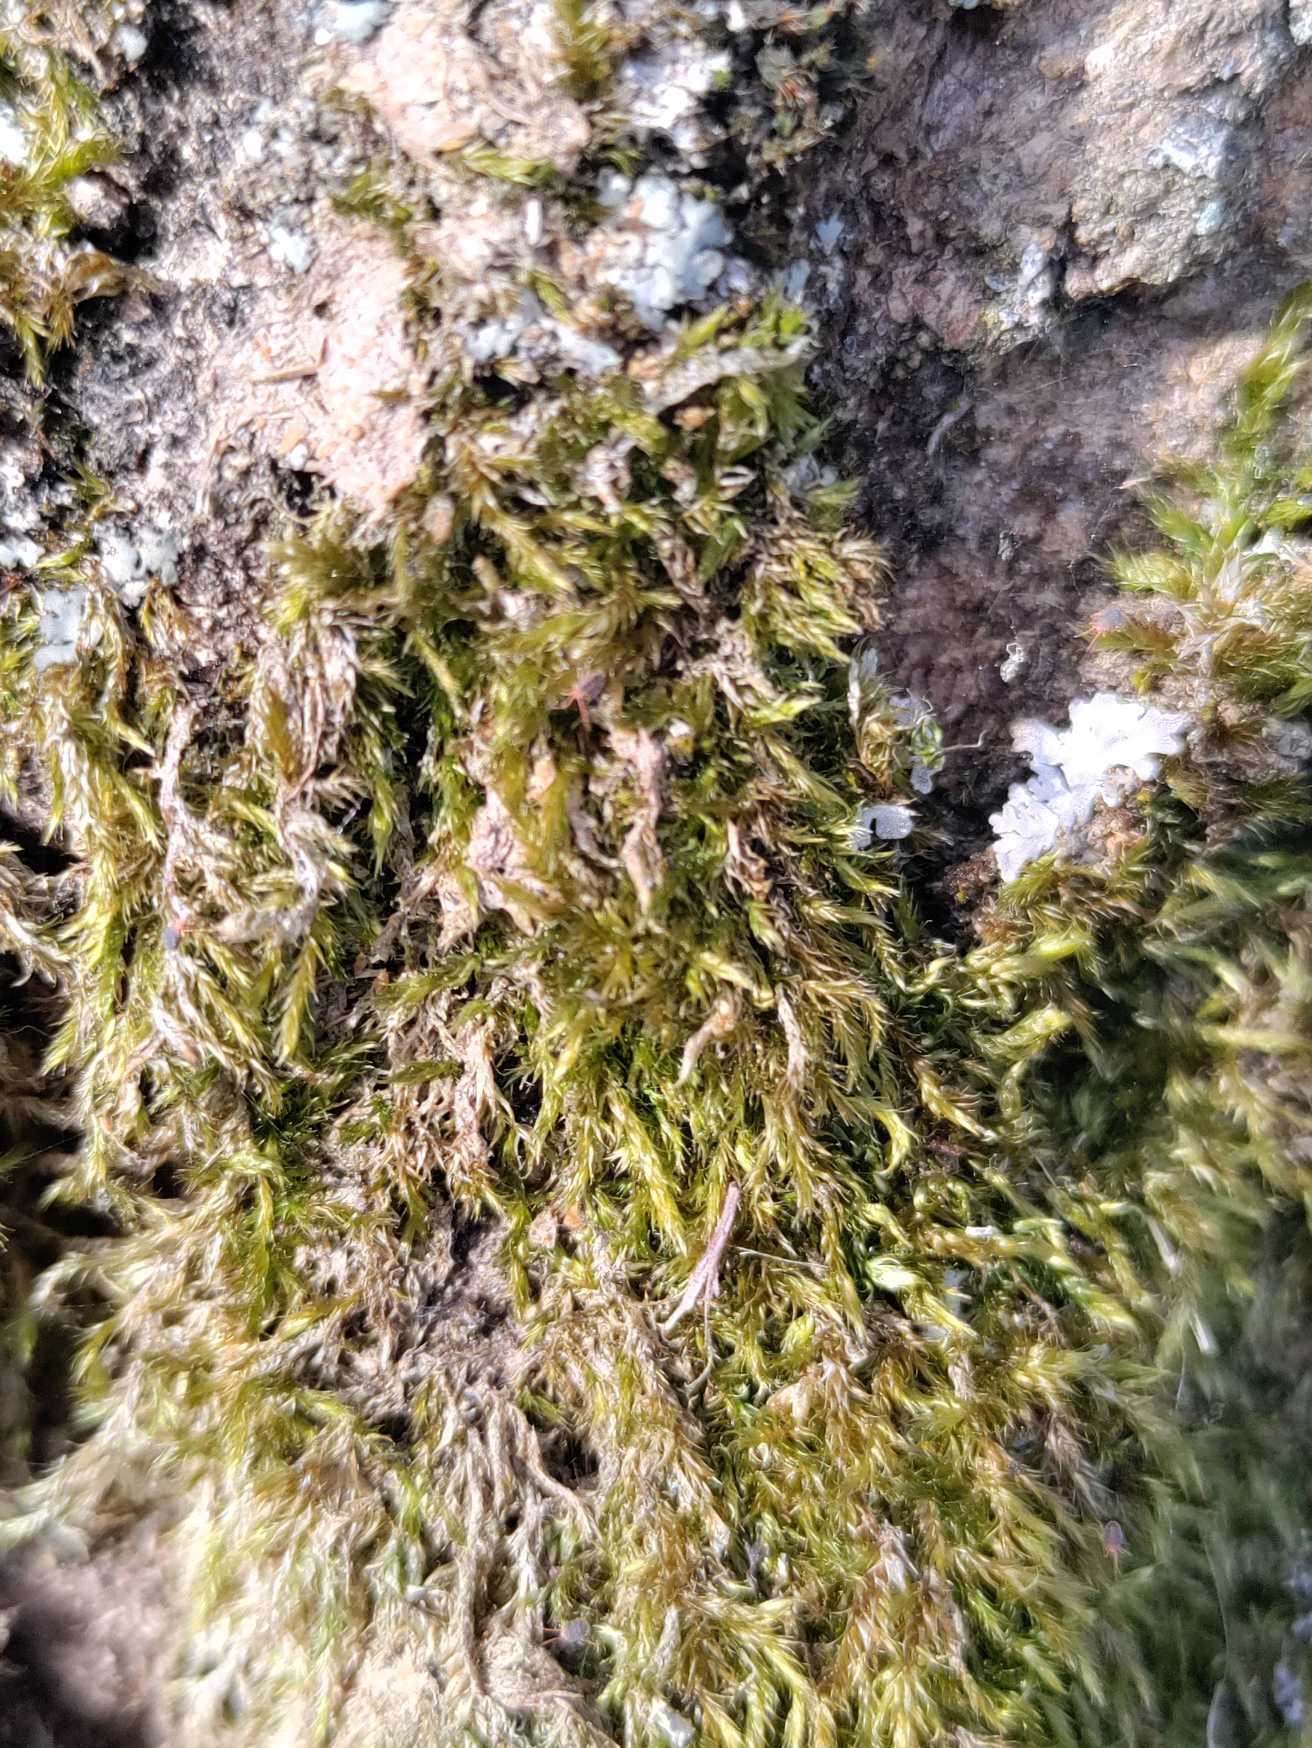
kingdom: Plantae
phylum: Bryophyta
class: Bryopsida
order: Hypnales
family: Hypnaceae
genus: Hypnum
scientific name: Hypnum
